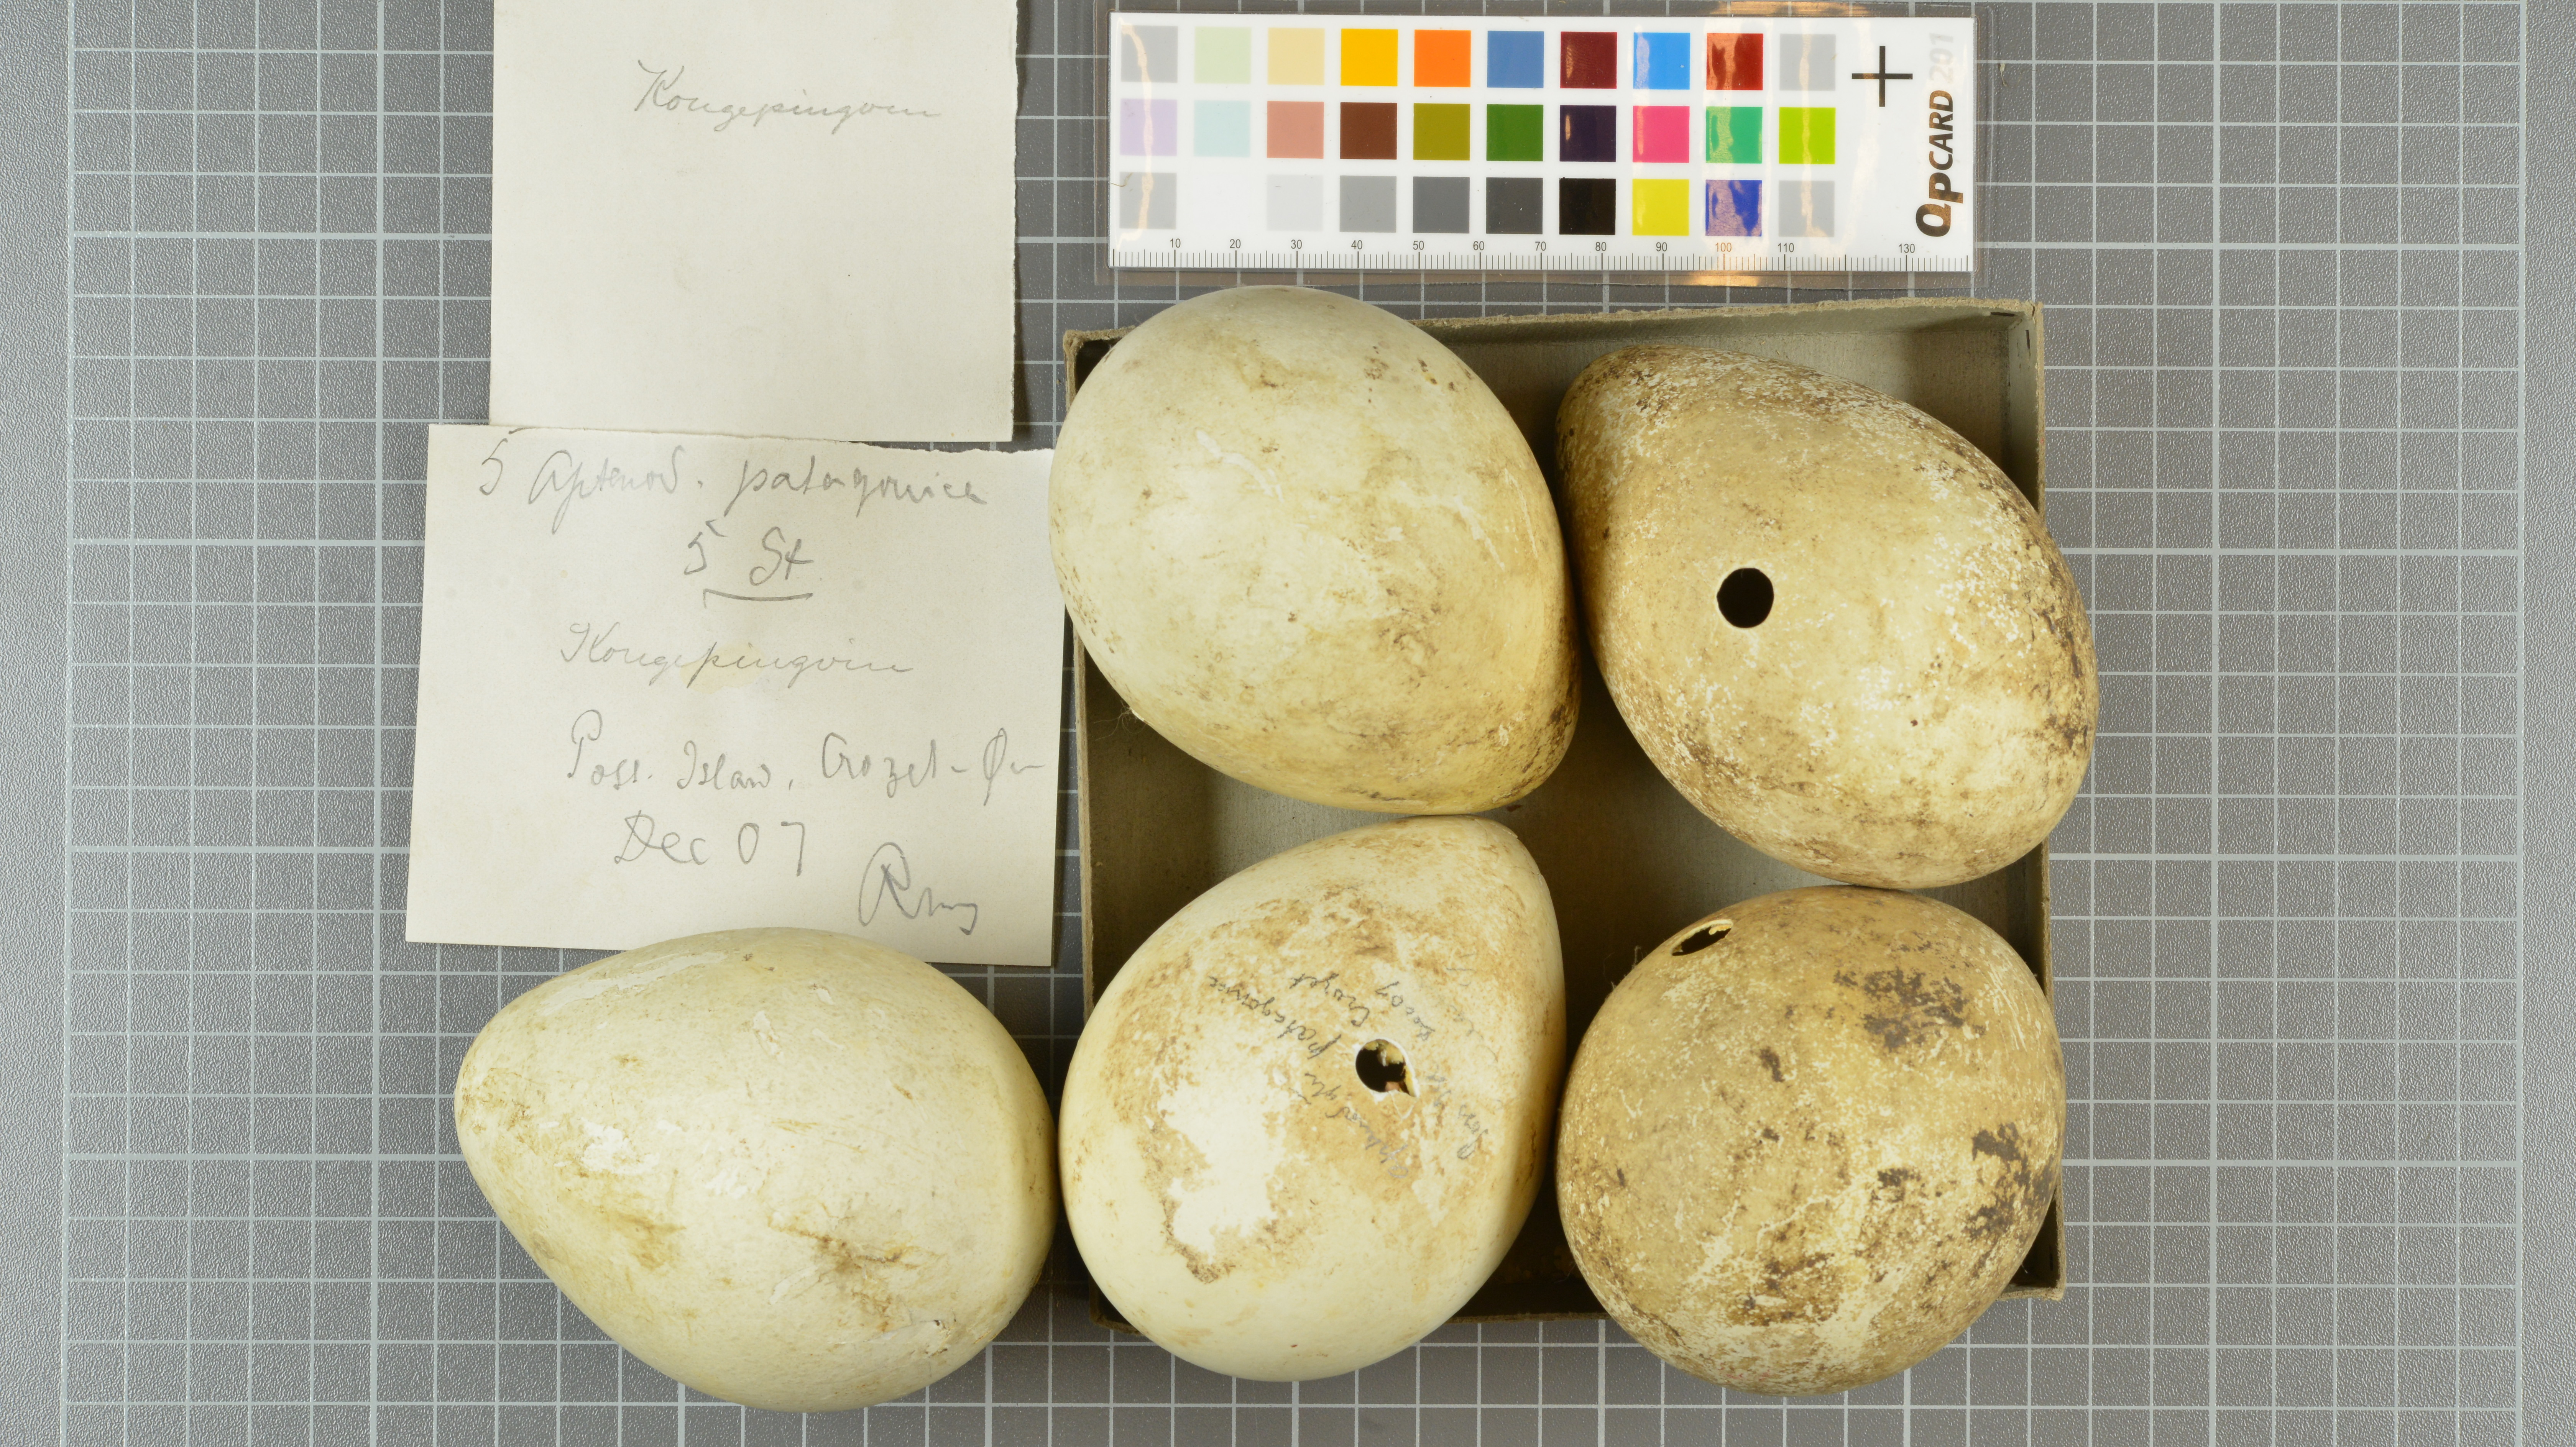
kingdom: Animalia
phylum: Chordata
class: Aves
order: Sphenisciformes
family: Spheniscidae
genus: Aptenodytes
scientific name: Aptenodytes patagonicus
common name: King penguin
